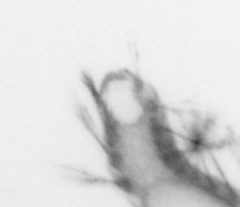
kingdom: Animalia
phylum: Annelida
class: Polychaeta
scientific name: Polychaeta
